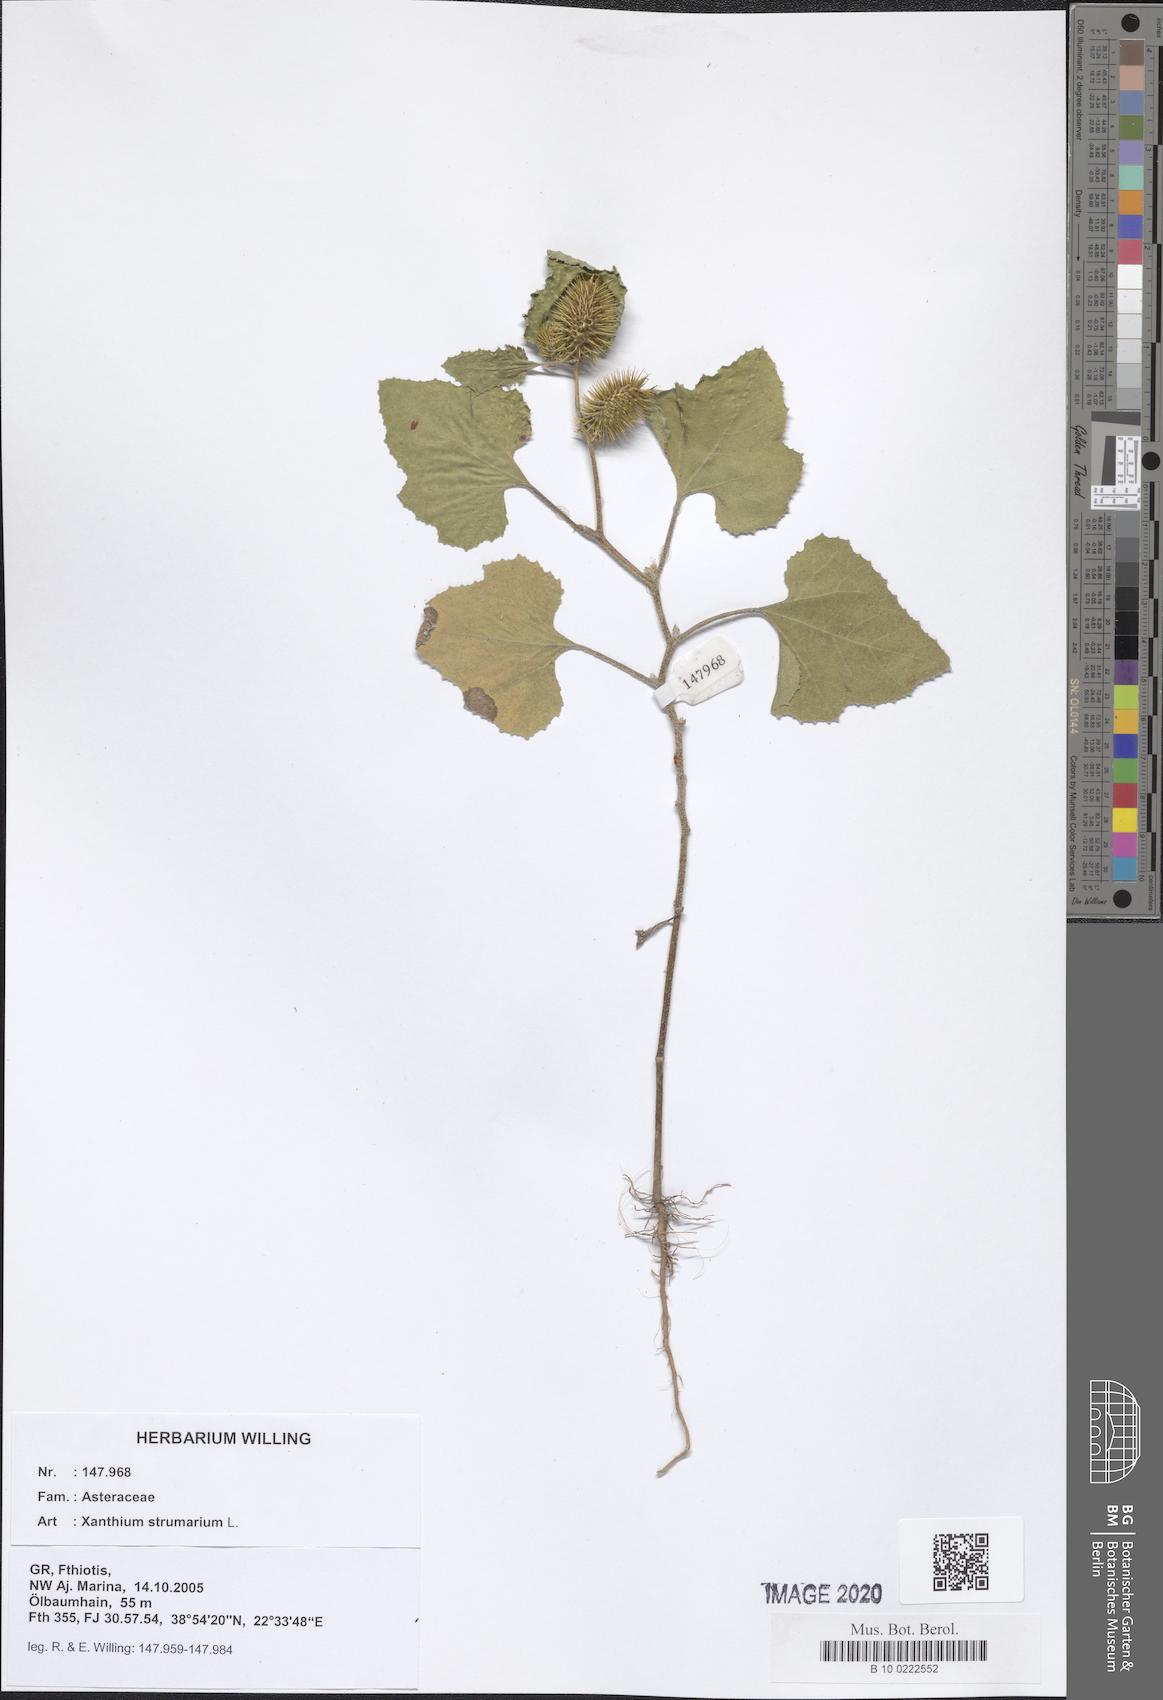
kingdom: Plantae
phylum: Tracheophyta
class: Magnoliopsida
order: Asterales
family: Asteraceae
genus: Xanthium
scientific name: Xanthium strumarium
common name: Rough cocklebur
